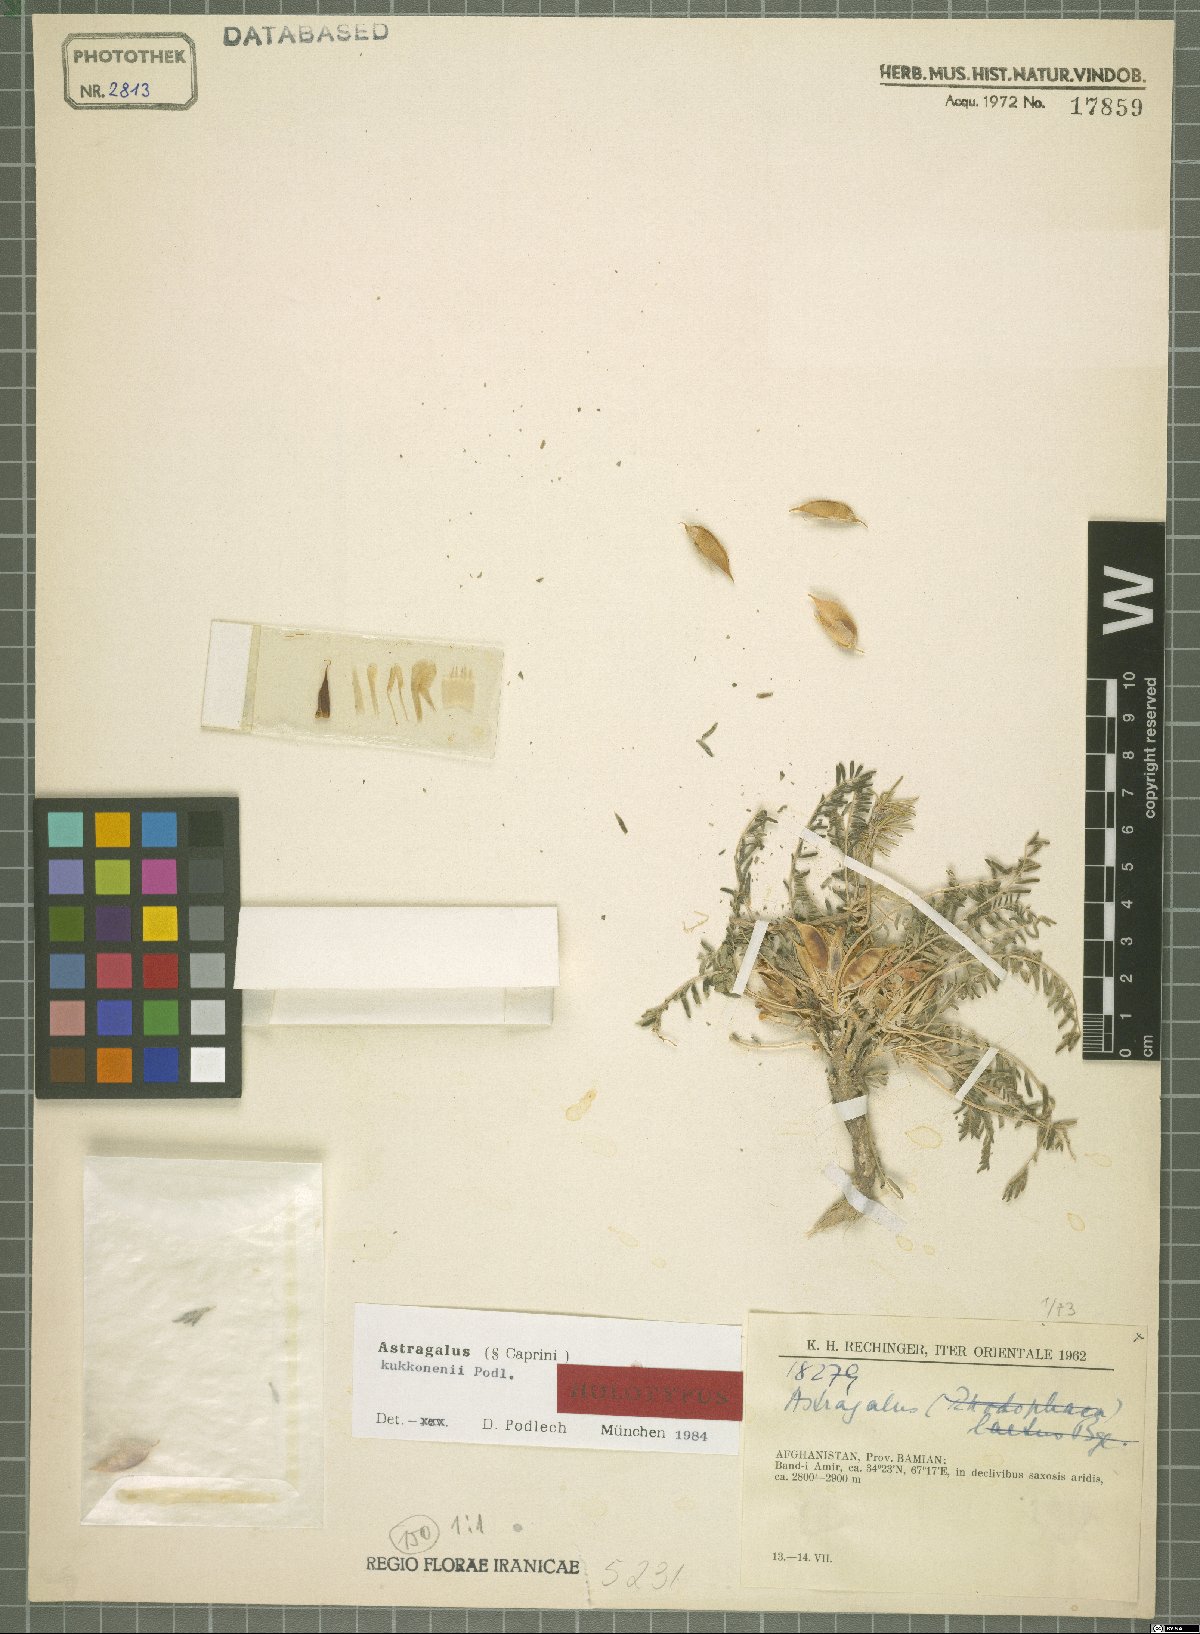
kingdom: Plantae
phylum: Tracheophyta
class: Magnoliopsida
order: Fabales
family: Fabaceae
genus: Astragalus
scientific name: Astragalus kukkonenii
